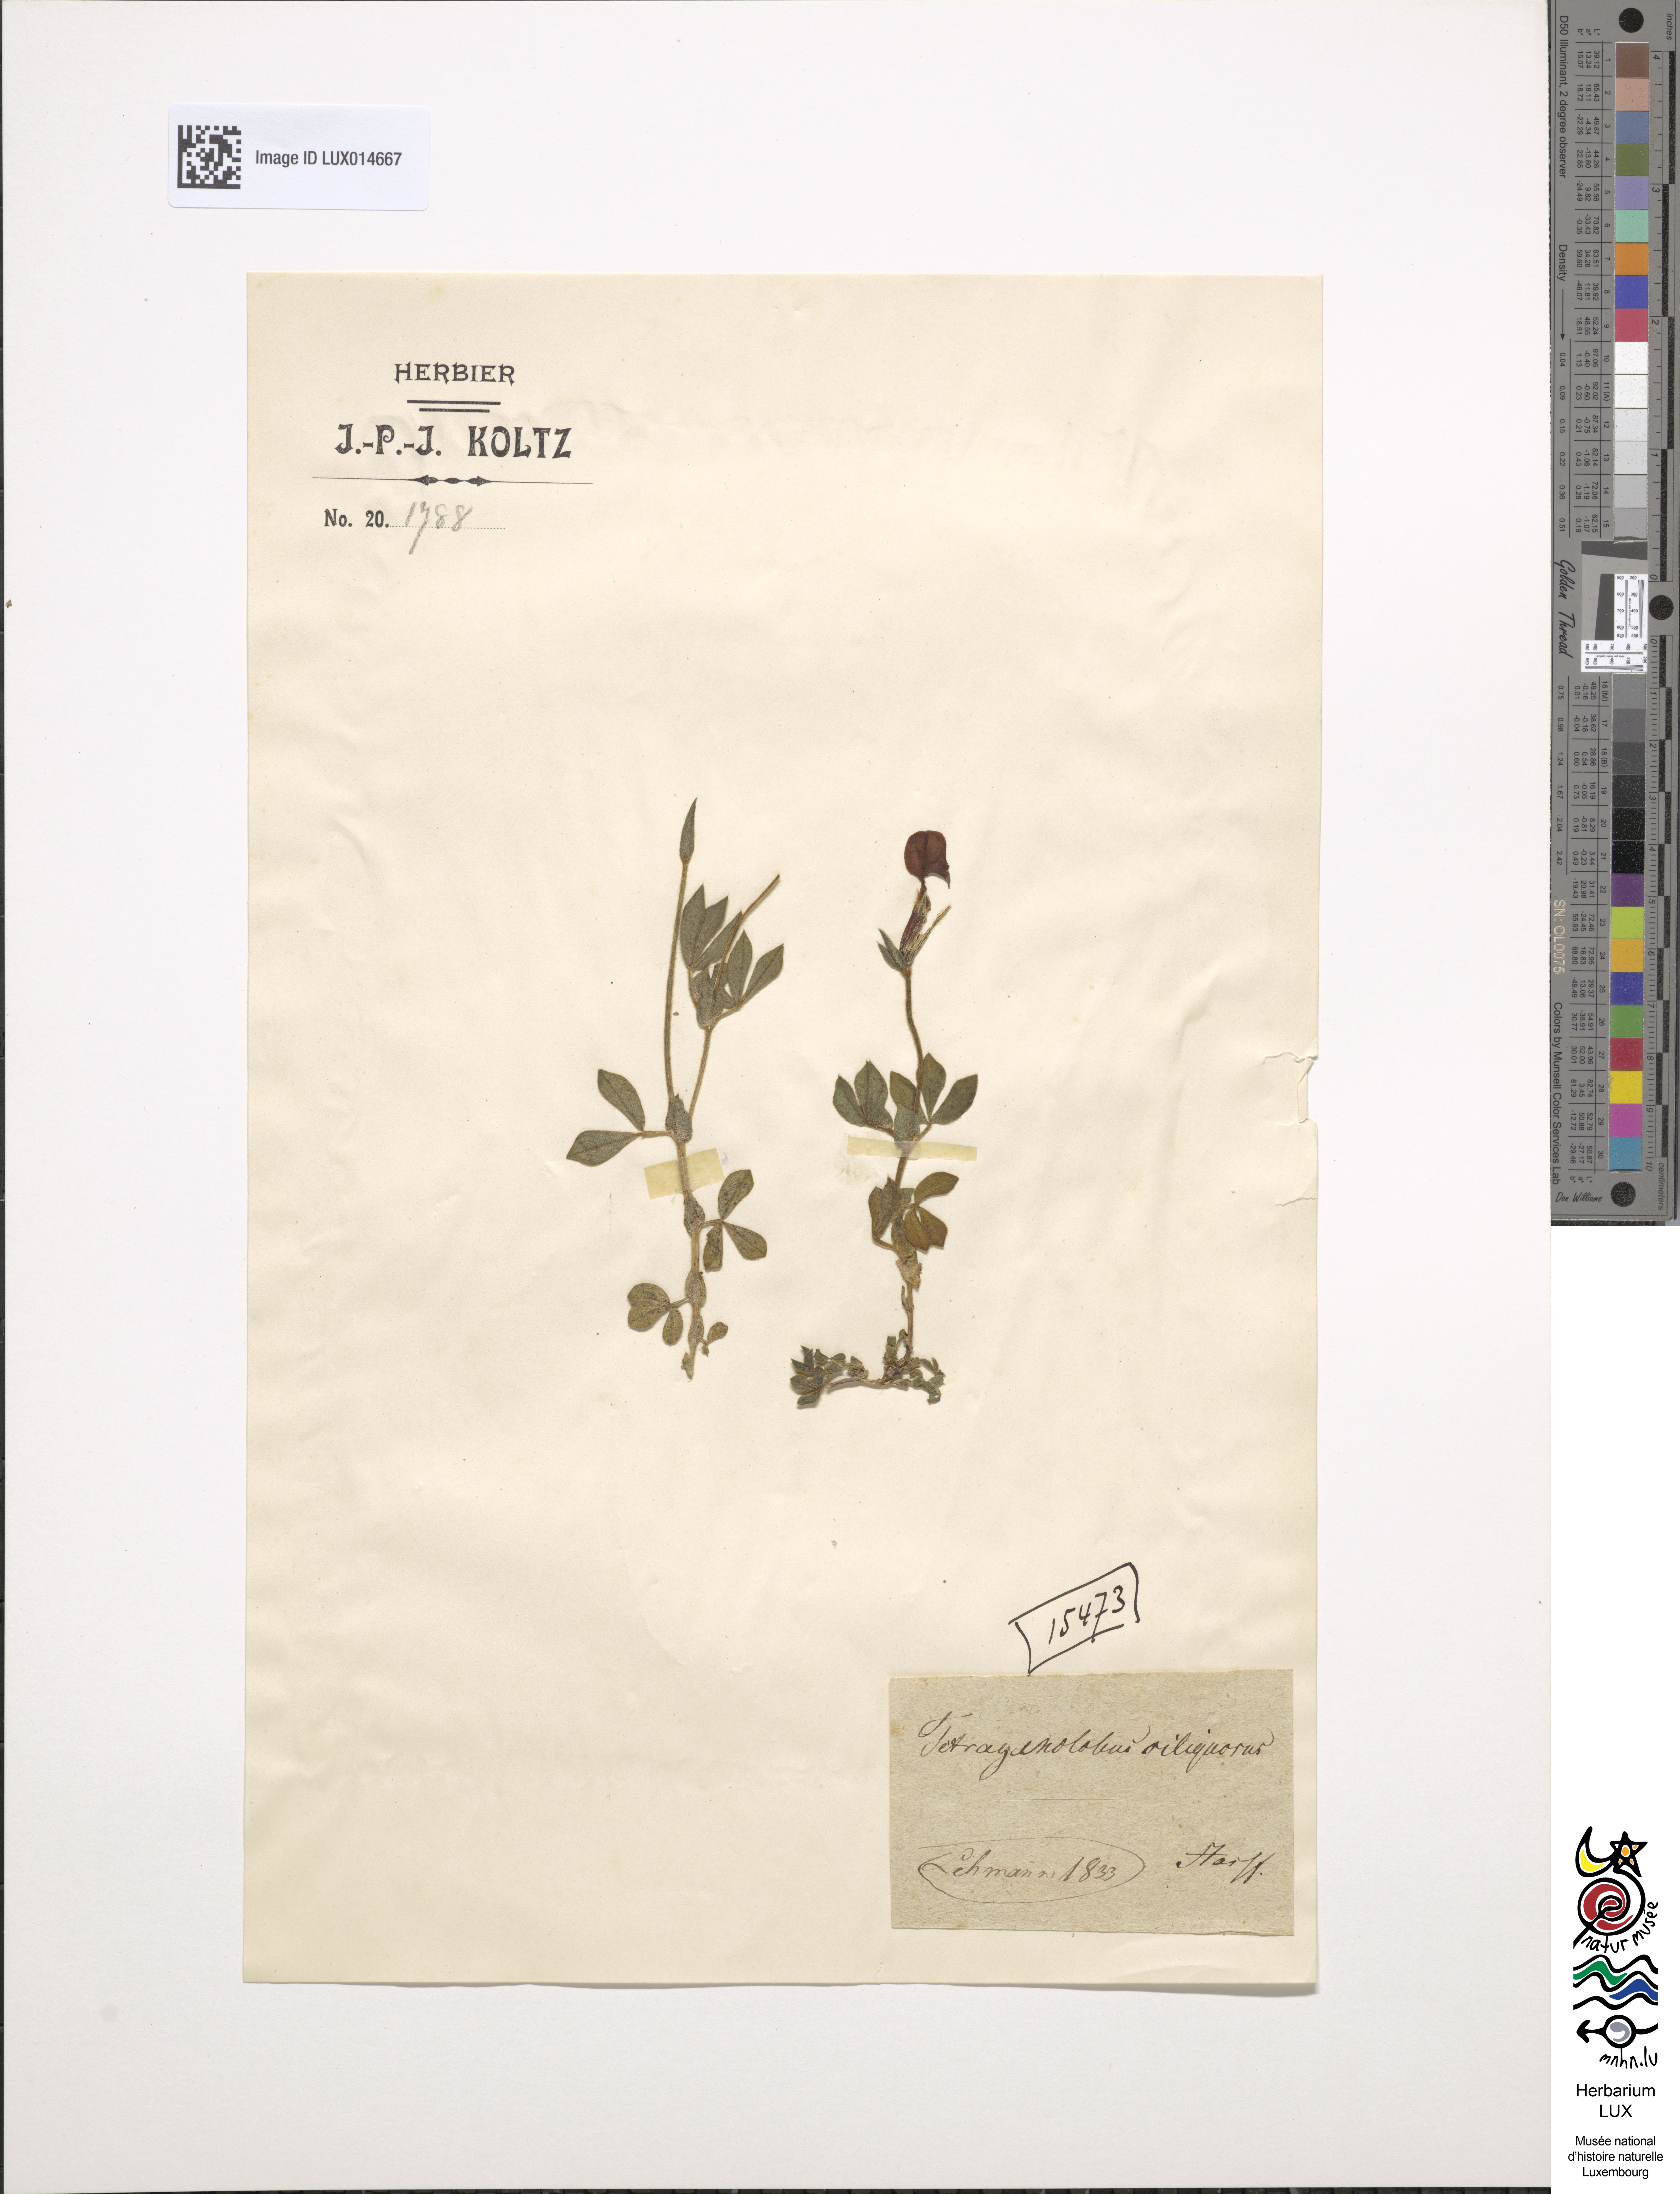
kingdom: Plantae
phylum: Tracheophyta
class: Magnoliopsida
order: Fabales
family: Fabaceae
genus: Lotus
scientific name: Lotus maritimus
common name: Dragon's-teeth
